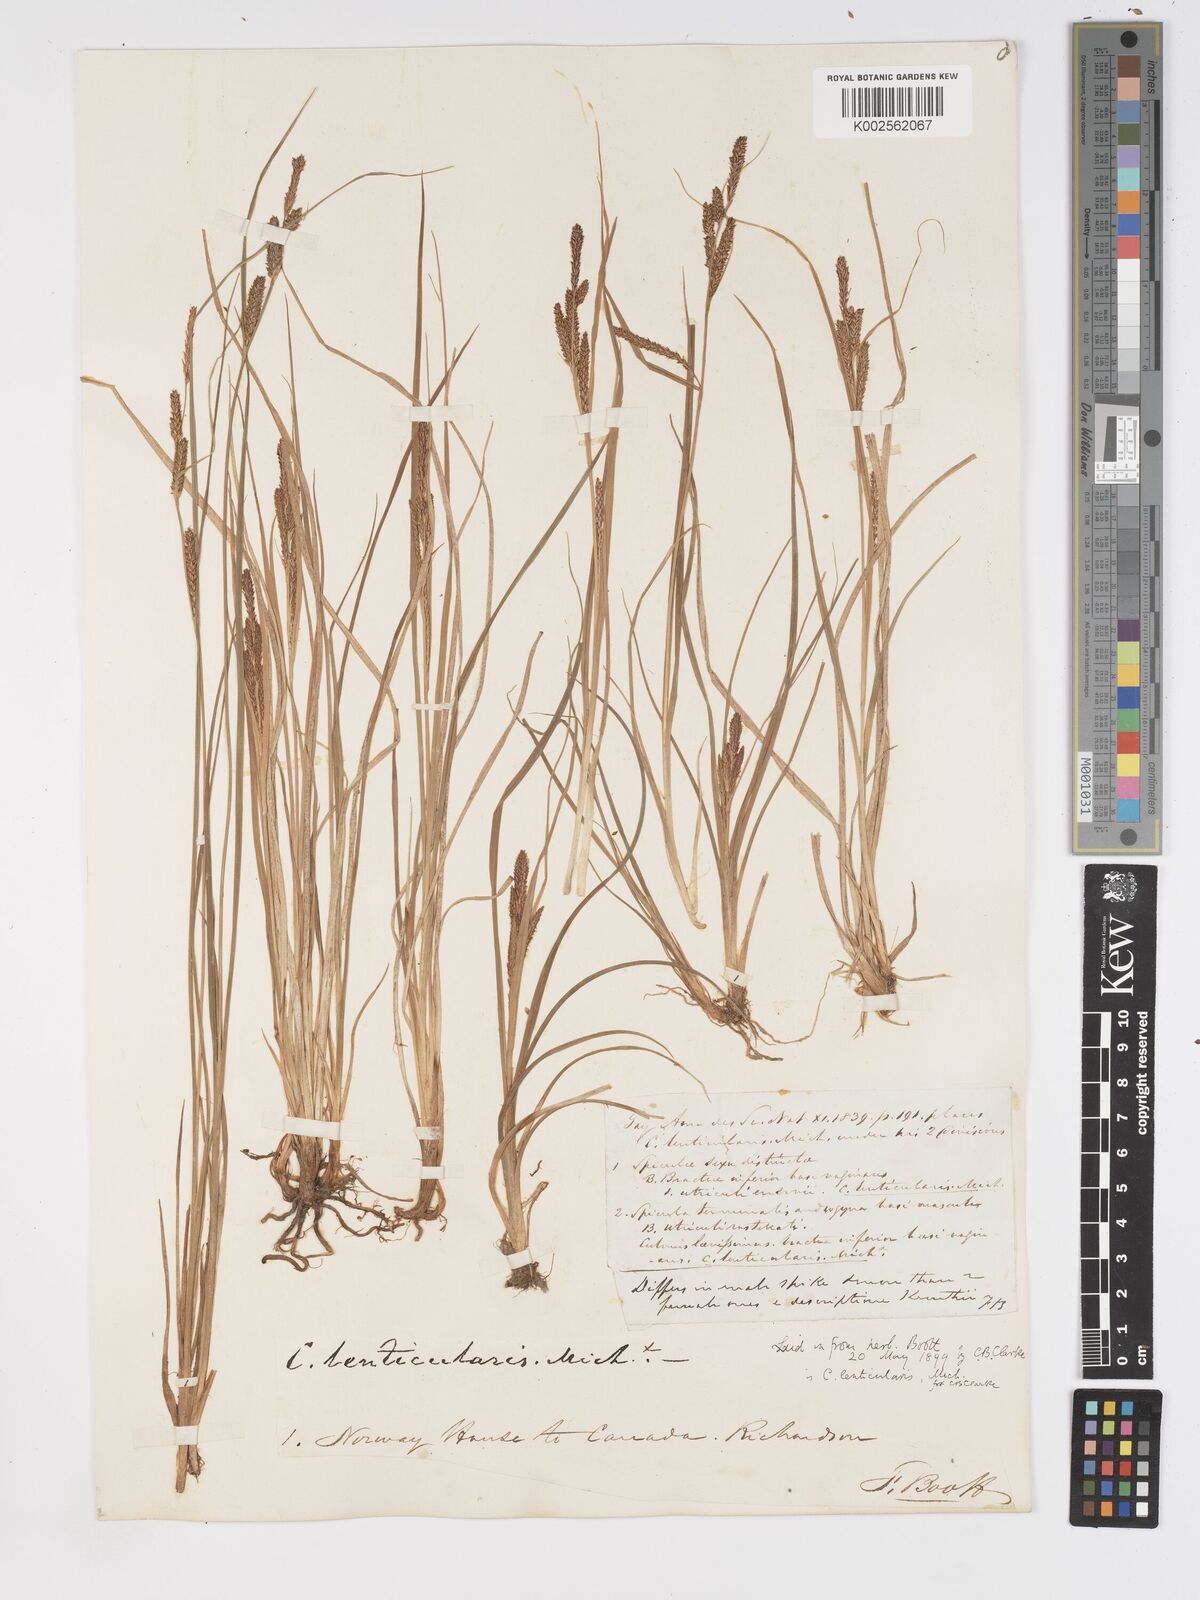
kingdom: Plantae
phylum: Tracheophyta
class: Liliopsida
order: Poales
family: Cyperaceae
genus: Carex
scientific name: Carex lenticularis
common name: Lakeshore sedge
